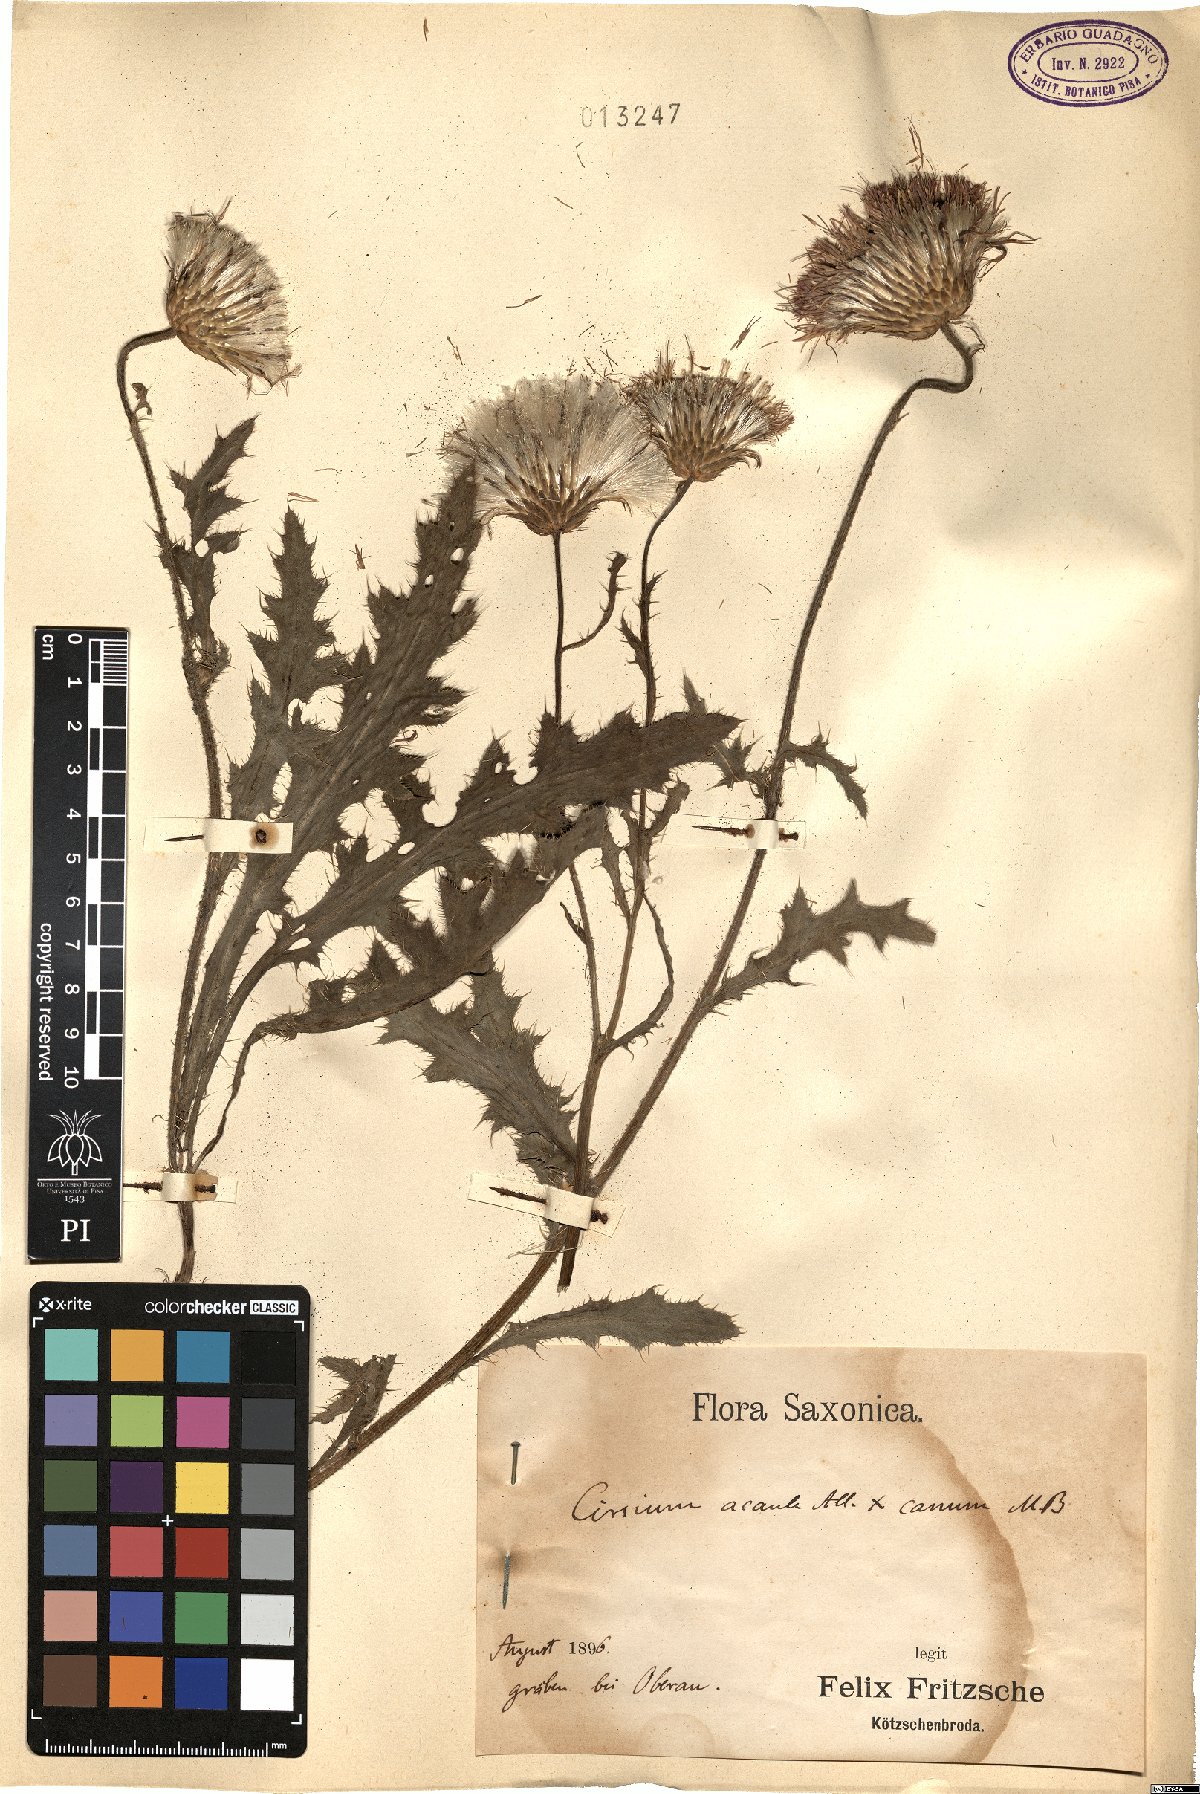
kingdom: Plantae
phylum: Tracheophyta
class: Magnoliopsida
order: Asterales
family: Asteraceae
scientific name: Asteraceae
